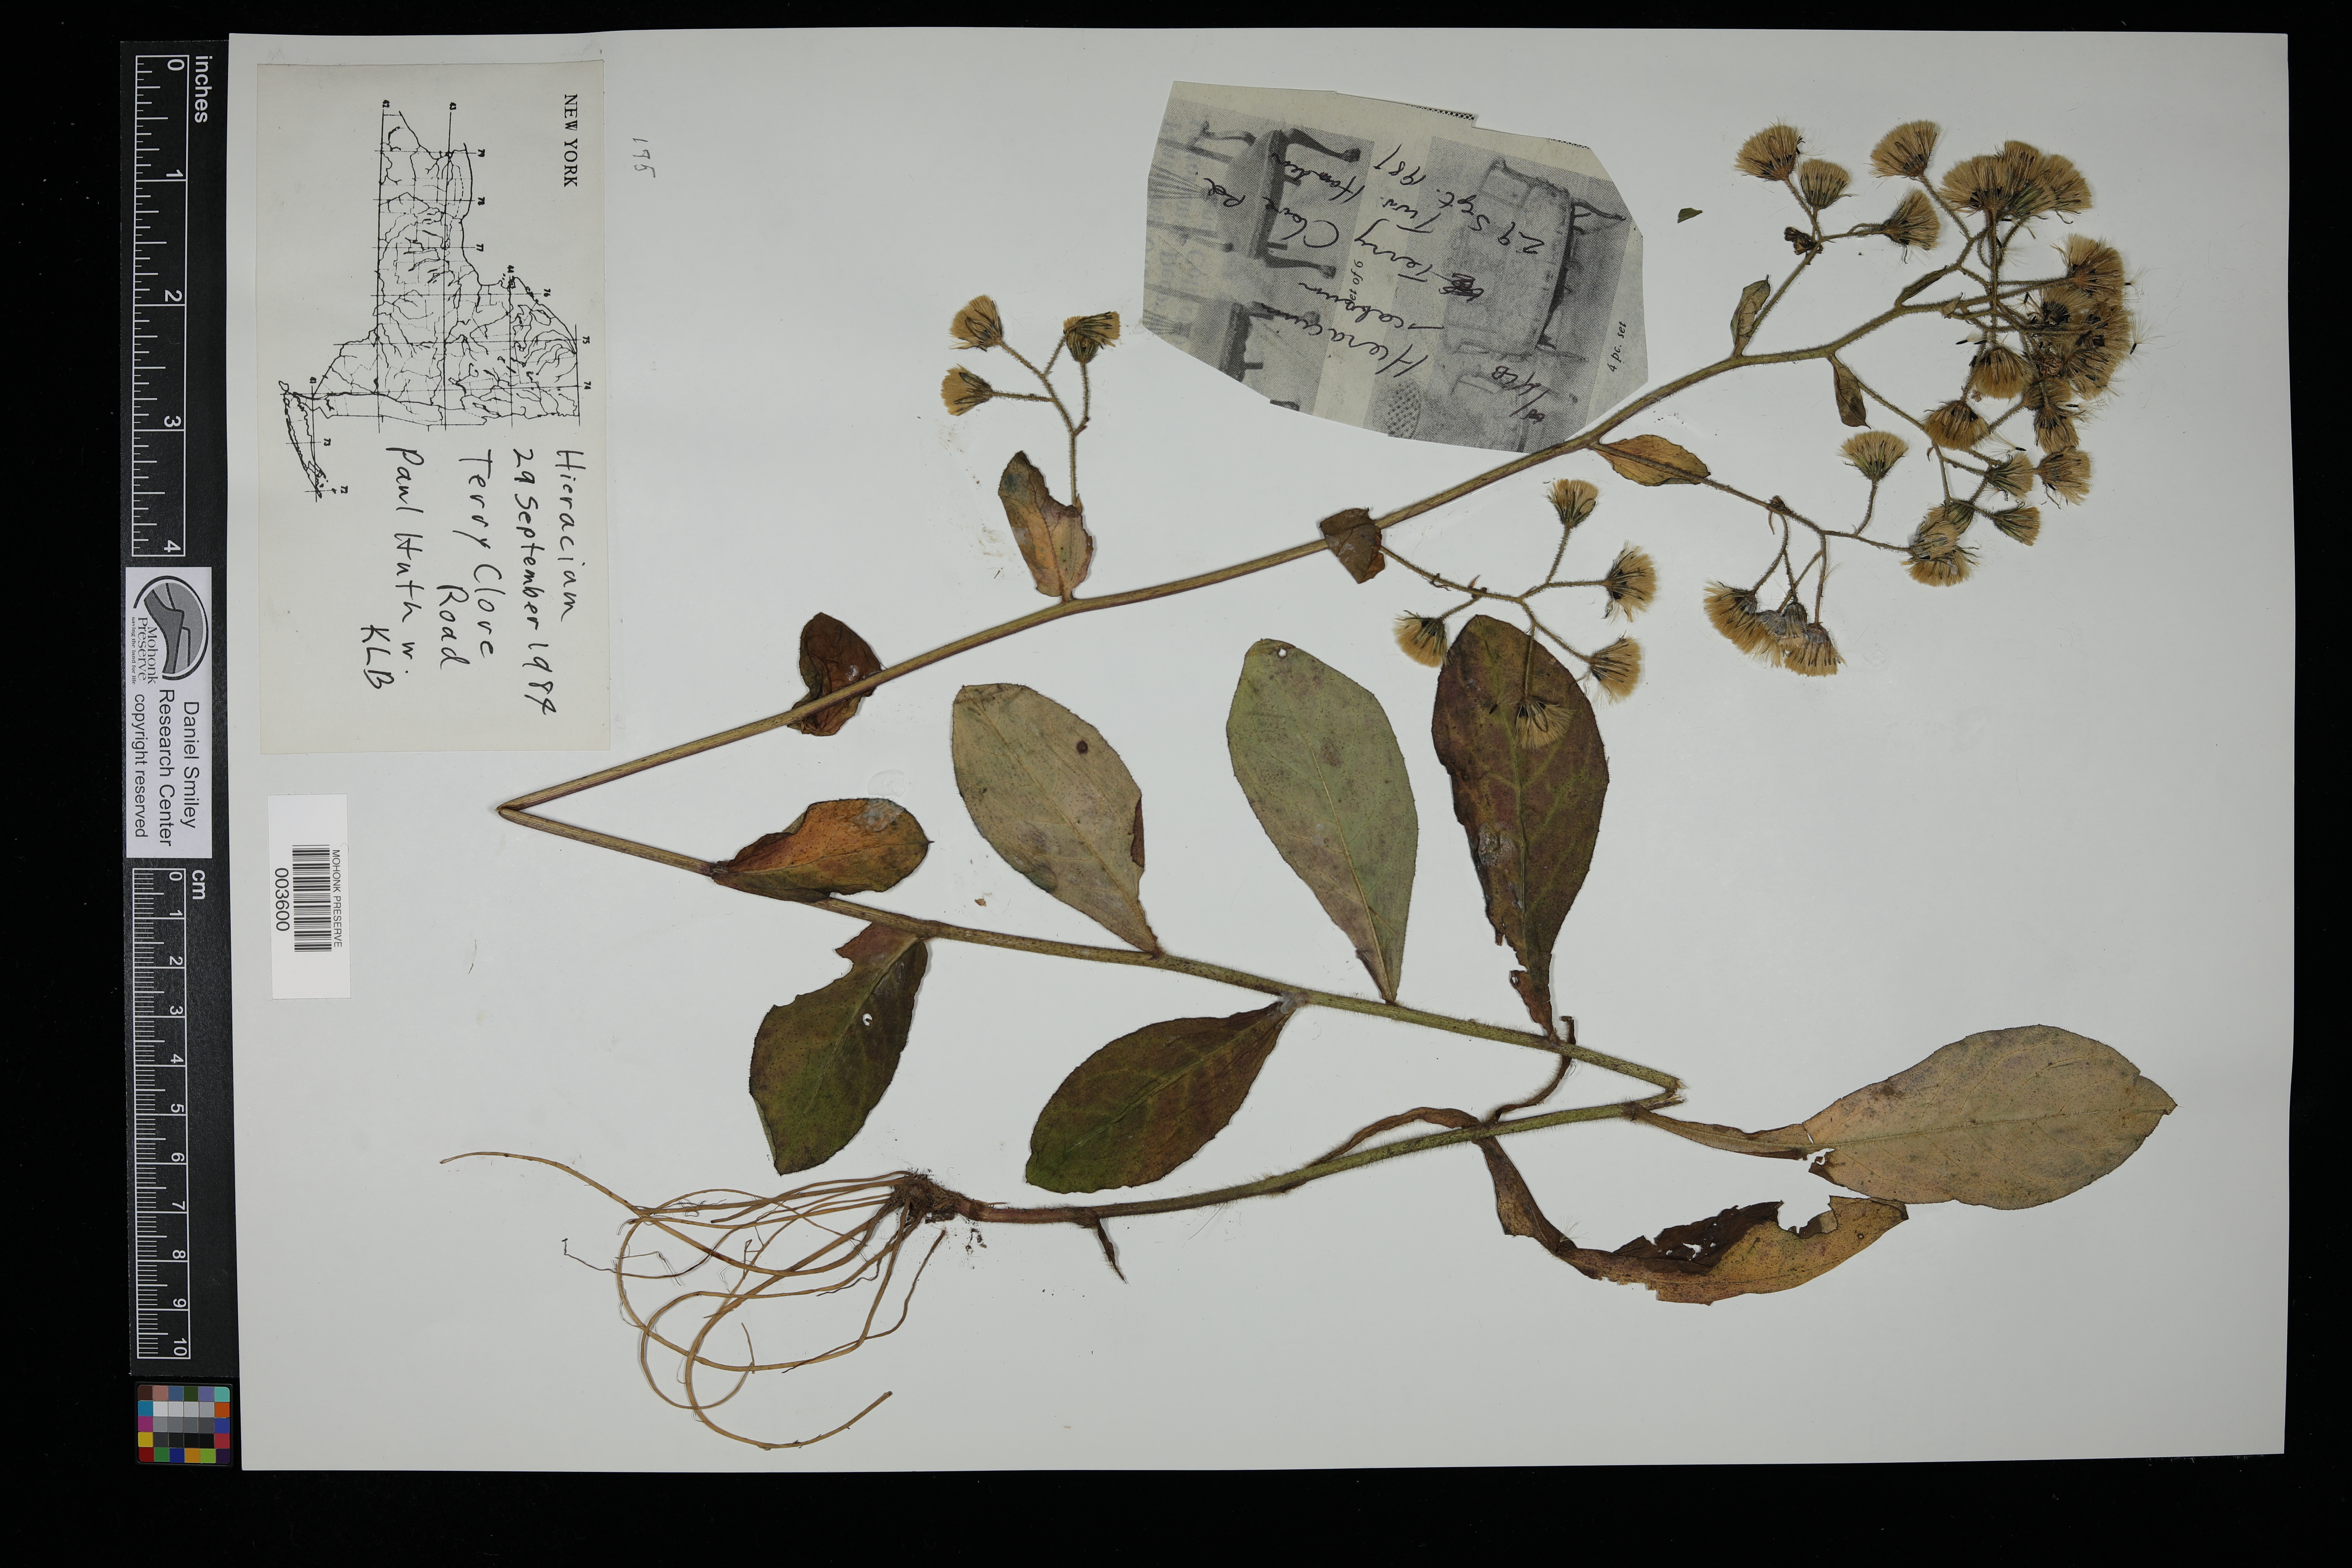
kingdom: Plantae
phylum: Tracheophyta
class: Magnoliopsida
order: Asterales
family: Asteraceae
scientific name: Asteraceae
